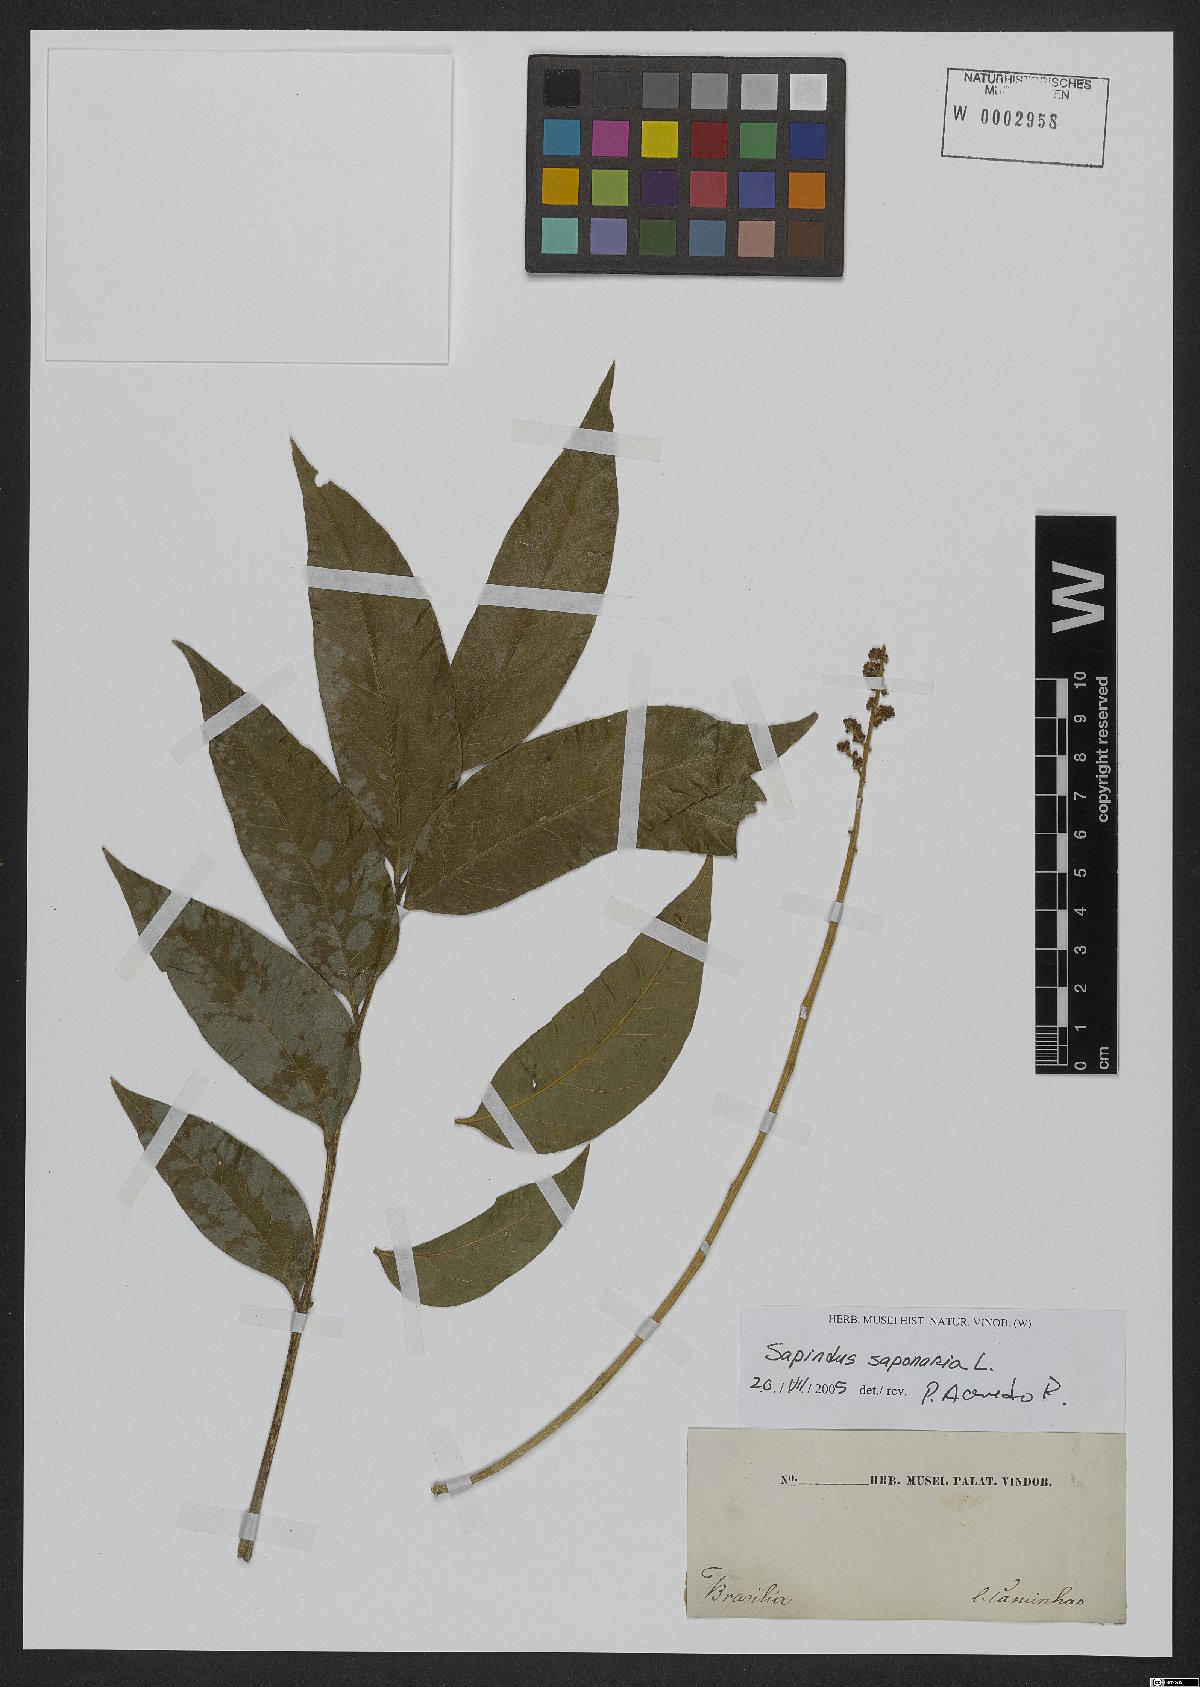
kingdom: Plantae
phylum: Tracheophyta
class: Magnoliopsida
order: Sapindales
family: Sapindaceae
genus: Sapindus
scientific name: Sapindus saponaria
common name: Wingleaf soapberry
